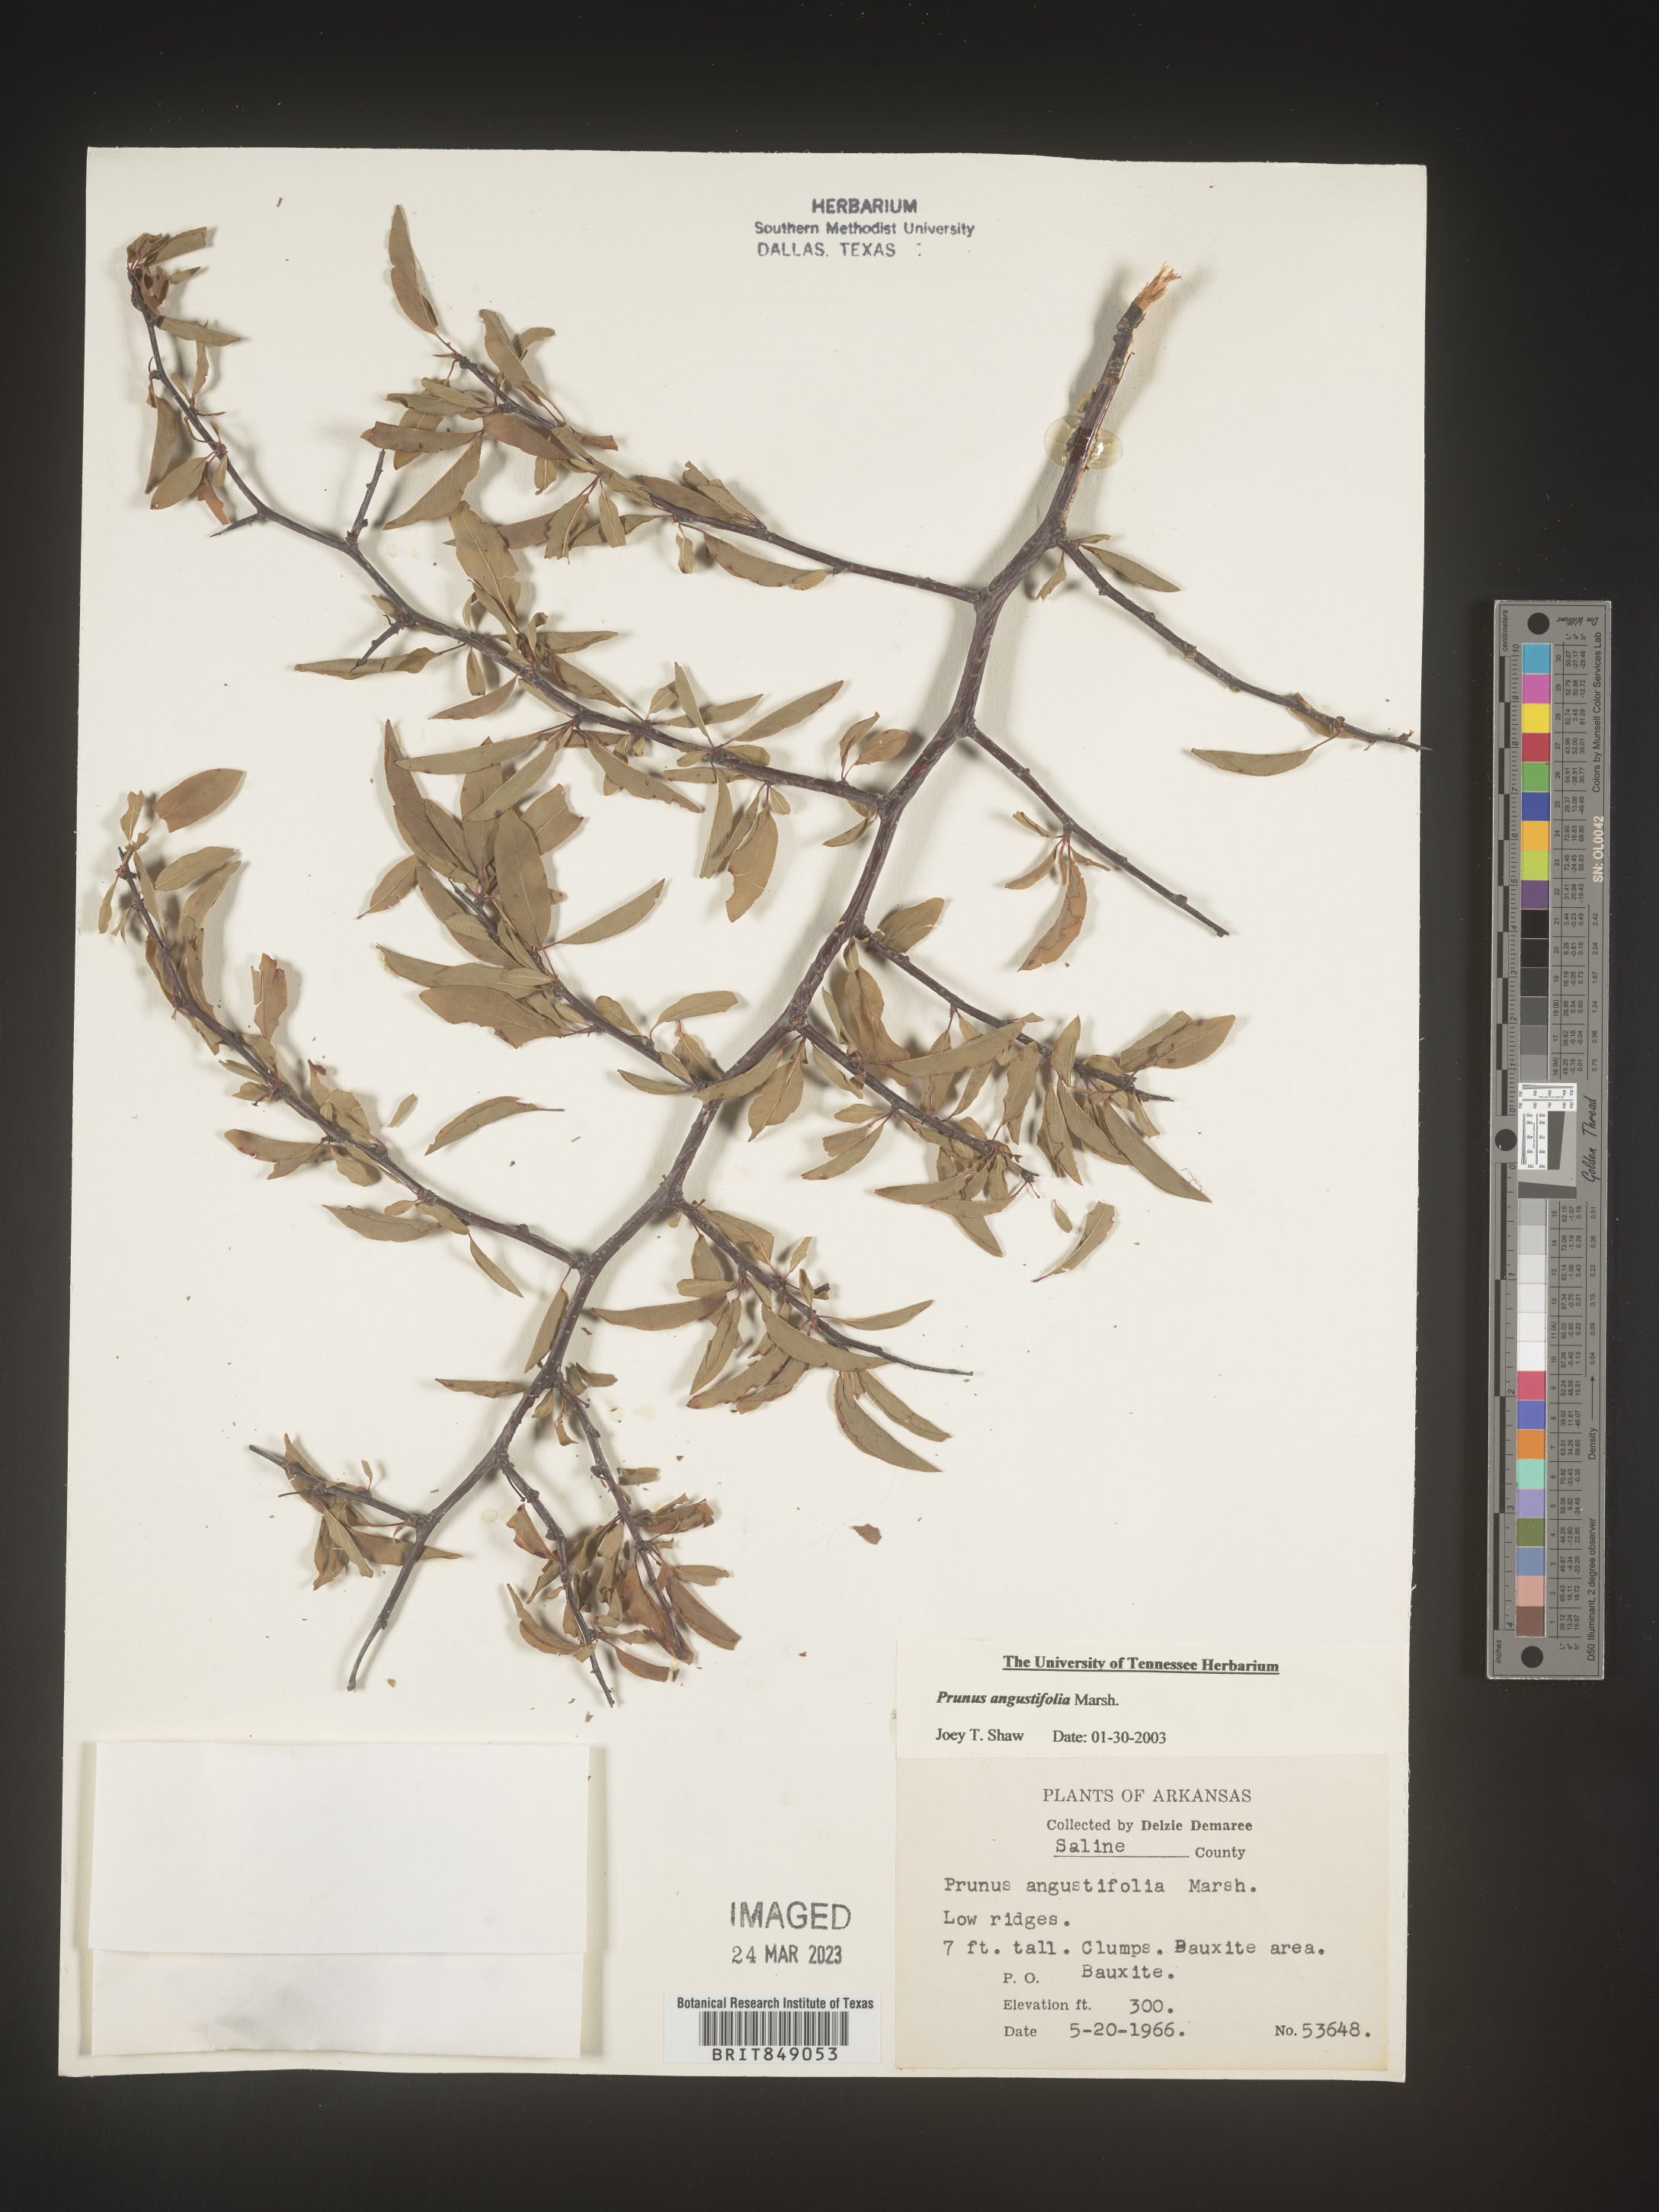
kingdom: Plantae
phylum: Tracheophyta
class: Magnoliopsida
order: Rosales
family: Rosaceae
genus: Prunus
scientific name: Prunus angustifolia
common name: Cherokee plum
